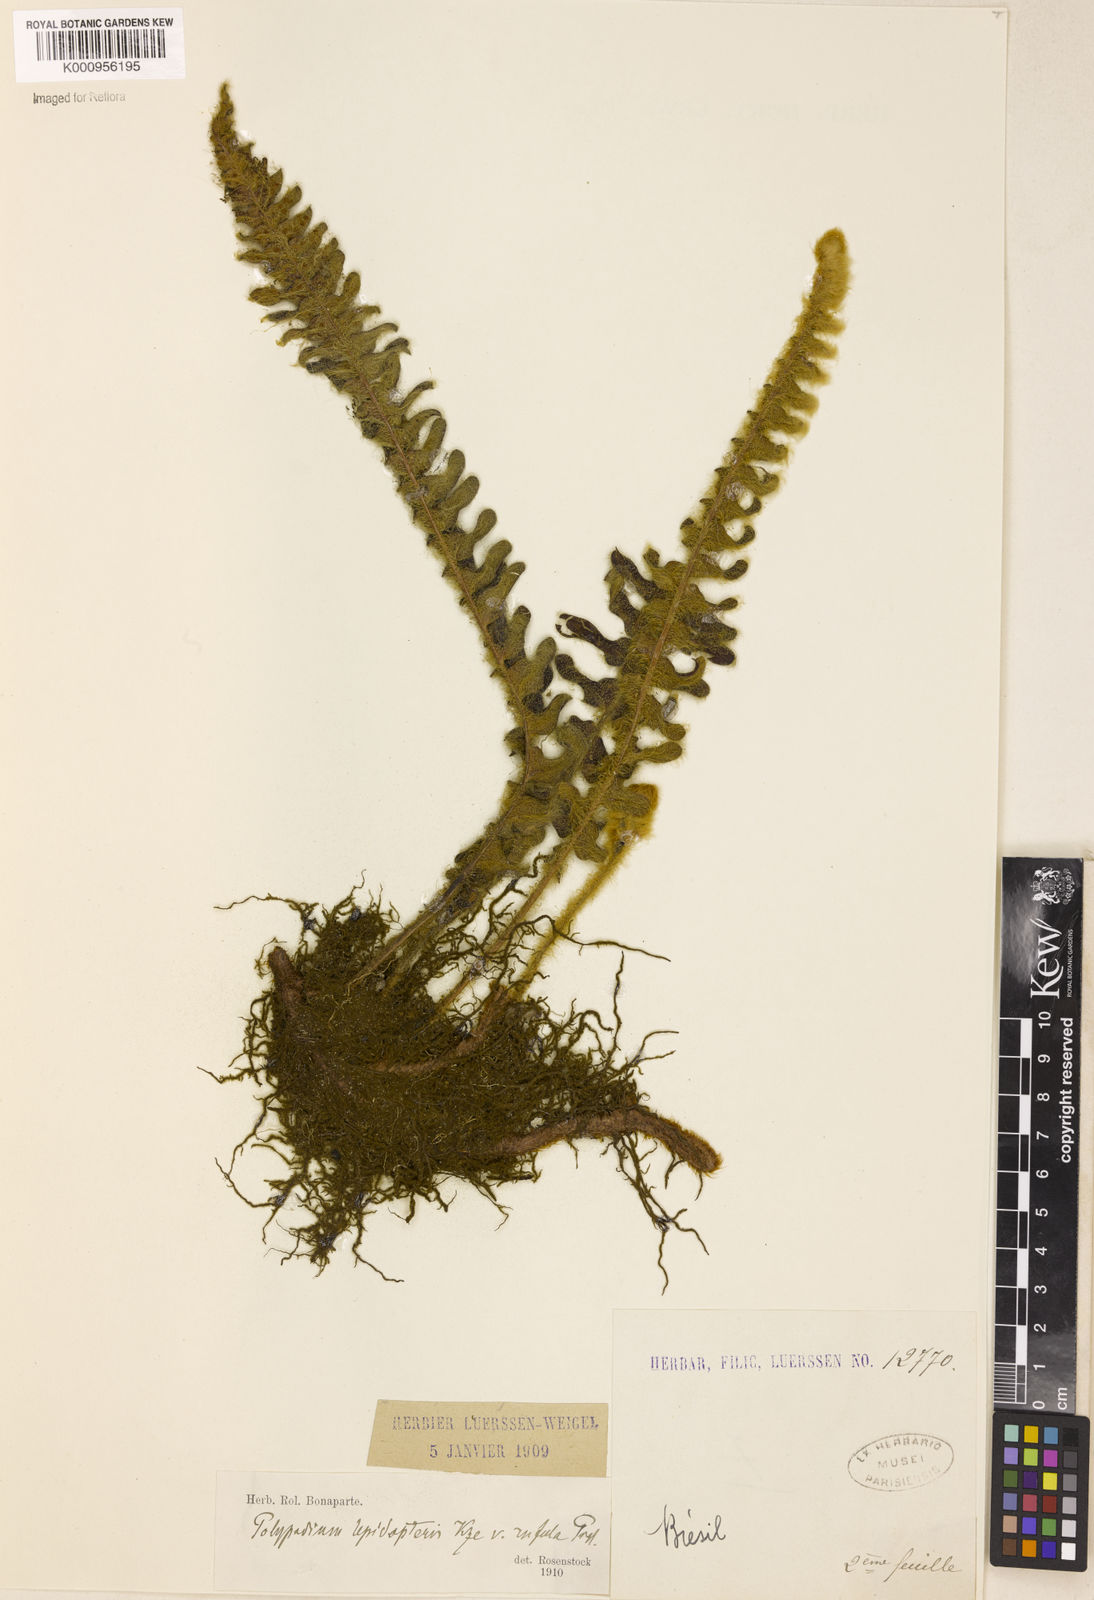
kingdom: Plantae
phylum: Tracheophyta
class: Polypodiopsida
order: Polypodiales
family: Polypodiaceae
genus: Pleopeltis
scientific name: Pleopeltis lepidopteris
